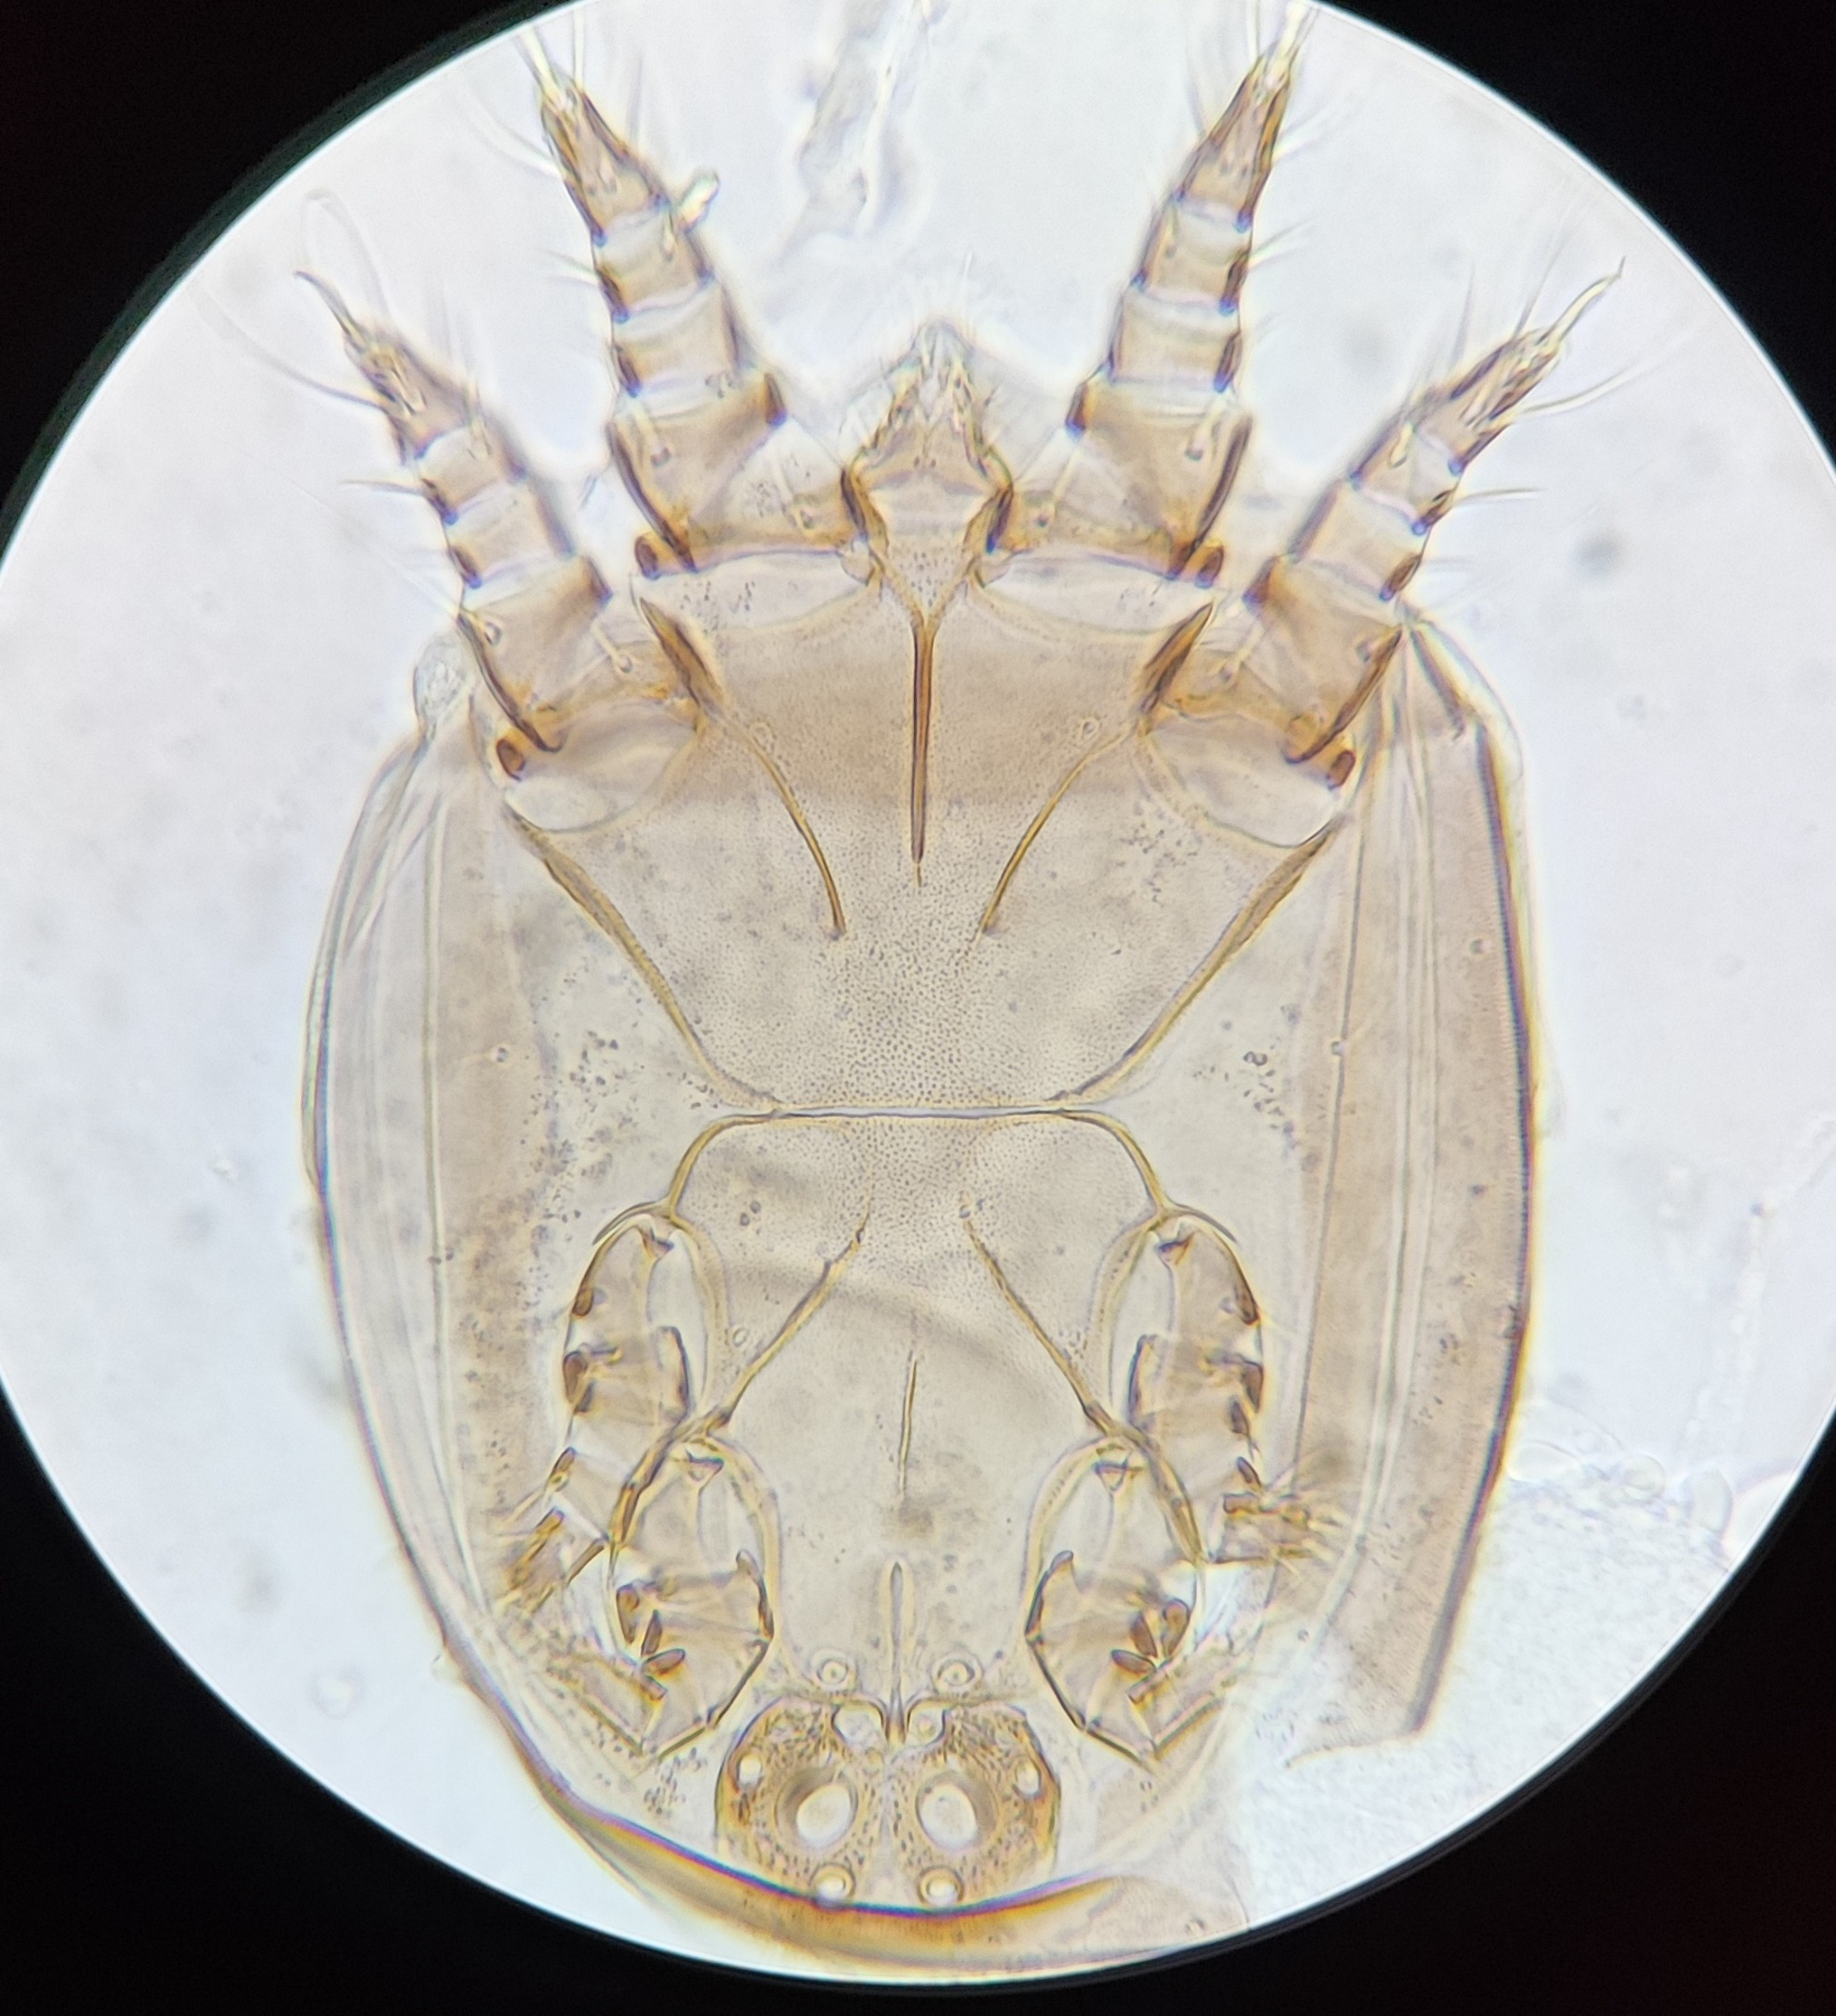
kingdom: Animalia
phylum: Arthropoda
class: Arachnida
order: Sarcoptiformes
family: Acaridae
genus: Kuzinia
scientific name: Kuzinia laevis
